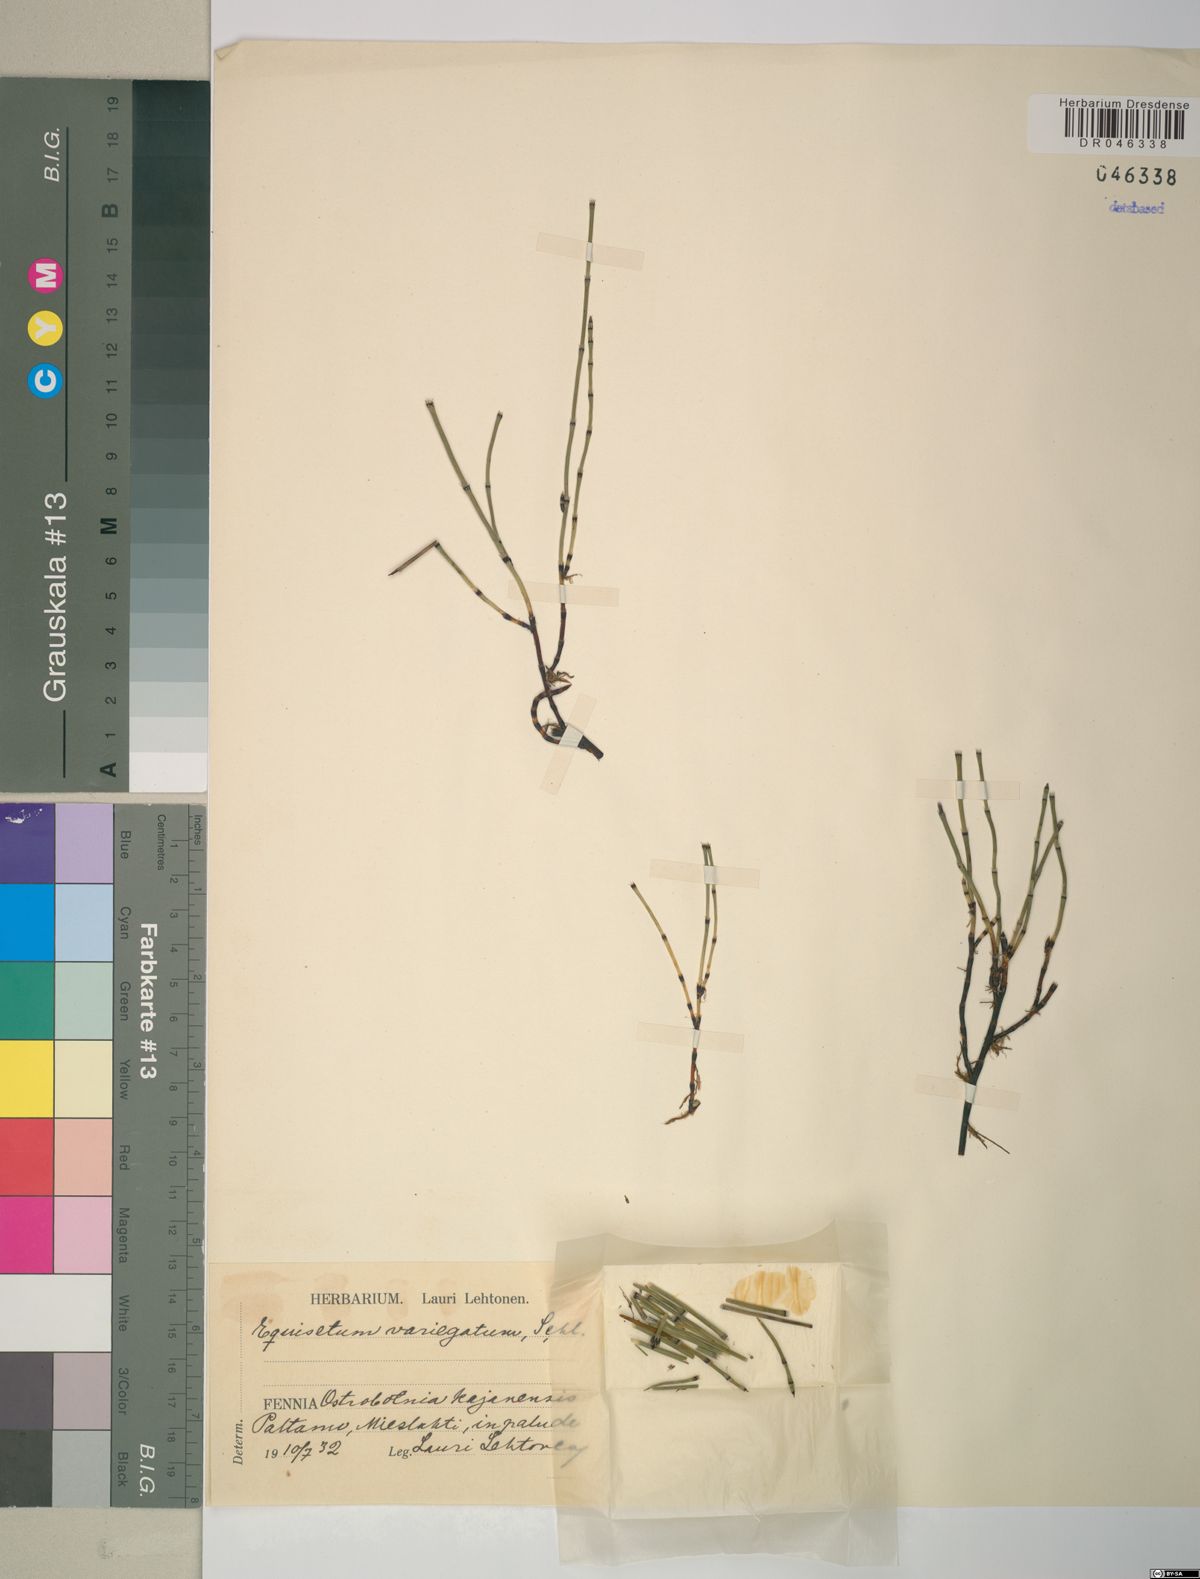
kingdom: Plantae
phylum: Tracheophyta
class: Polypodiopsida
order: Equisetales
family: Equisetaceae
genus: Equisetum
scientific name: Equisetum variegatum
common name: Variegated horsetail
